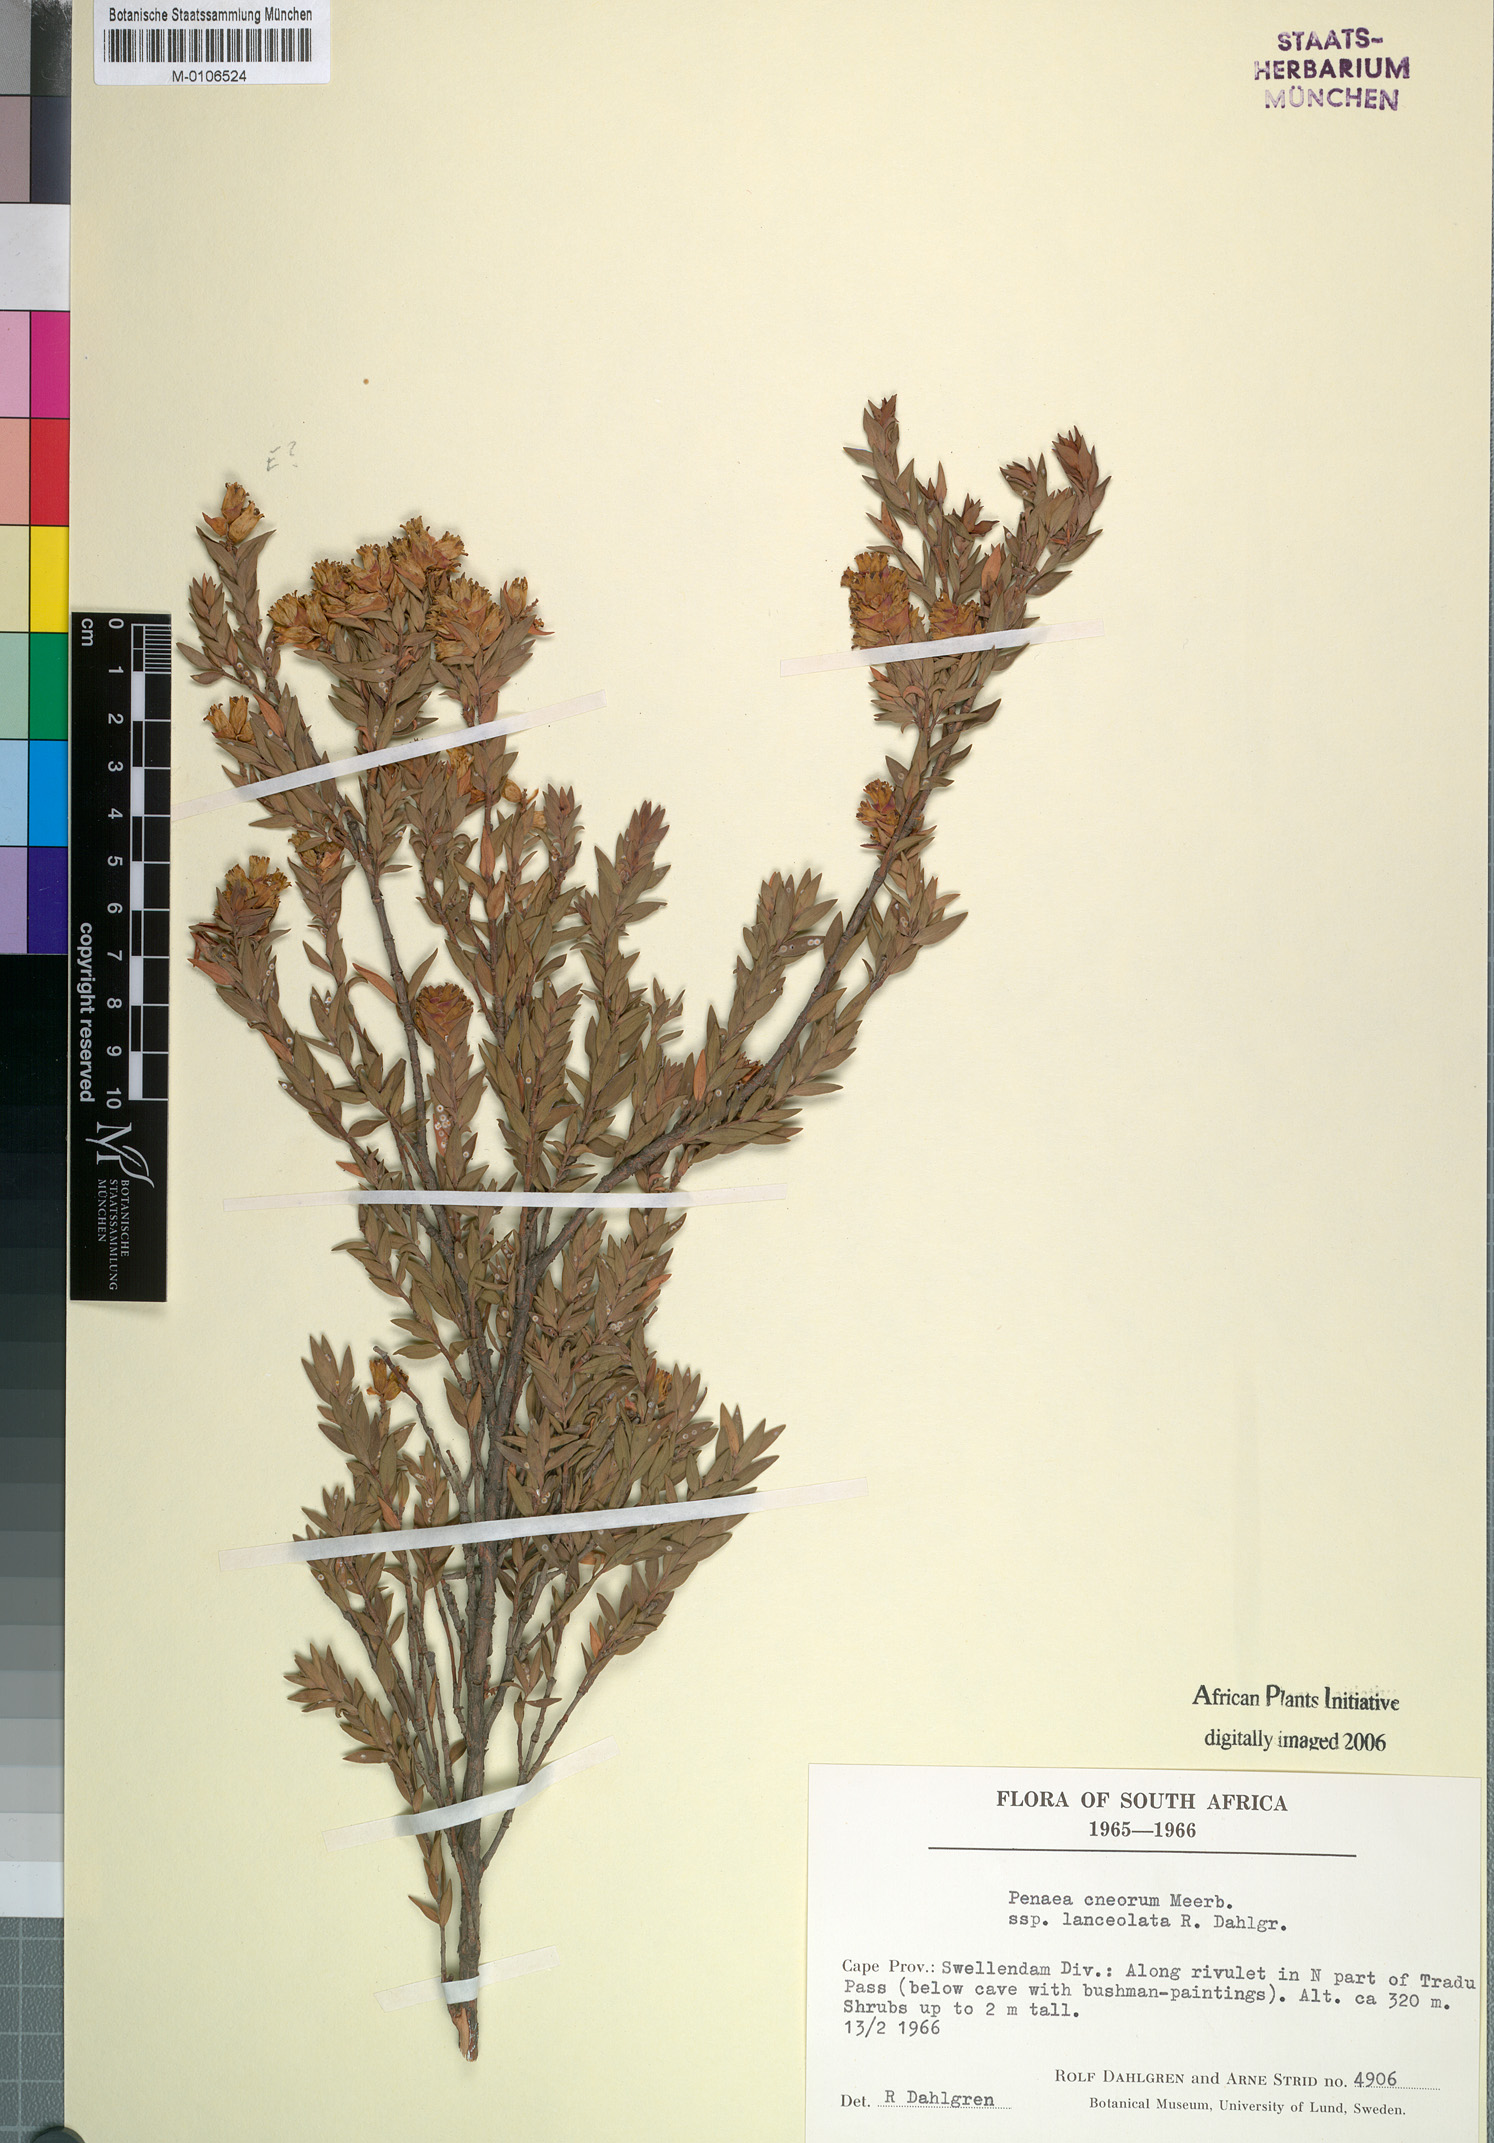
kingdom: Plantae
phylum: Tracheophyta
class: Magnoliopsida
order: Myrtales
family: Penaeaceae
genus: Penaea
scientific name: Penaea cneorum
